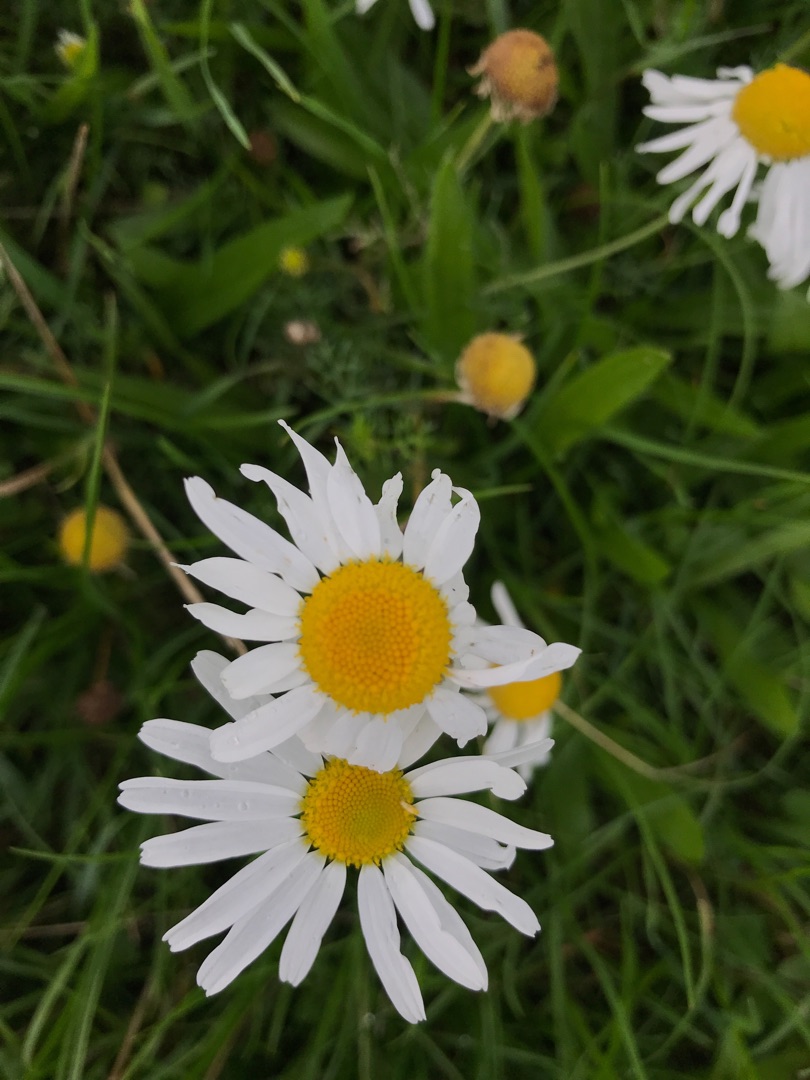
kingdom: Plantae
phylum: Tracheophyta
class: Magnoliopsida
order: Asterales
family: Asteraceae
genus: Tripleurospermum
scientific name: Tripleurospermum inodorum
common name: Lugtløs kamille
